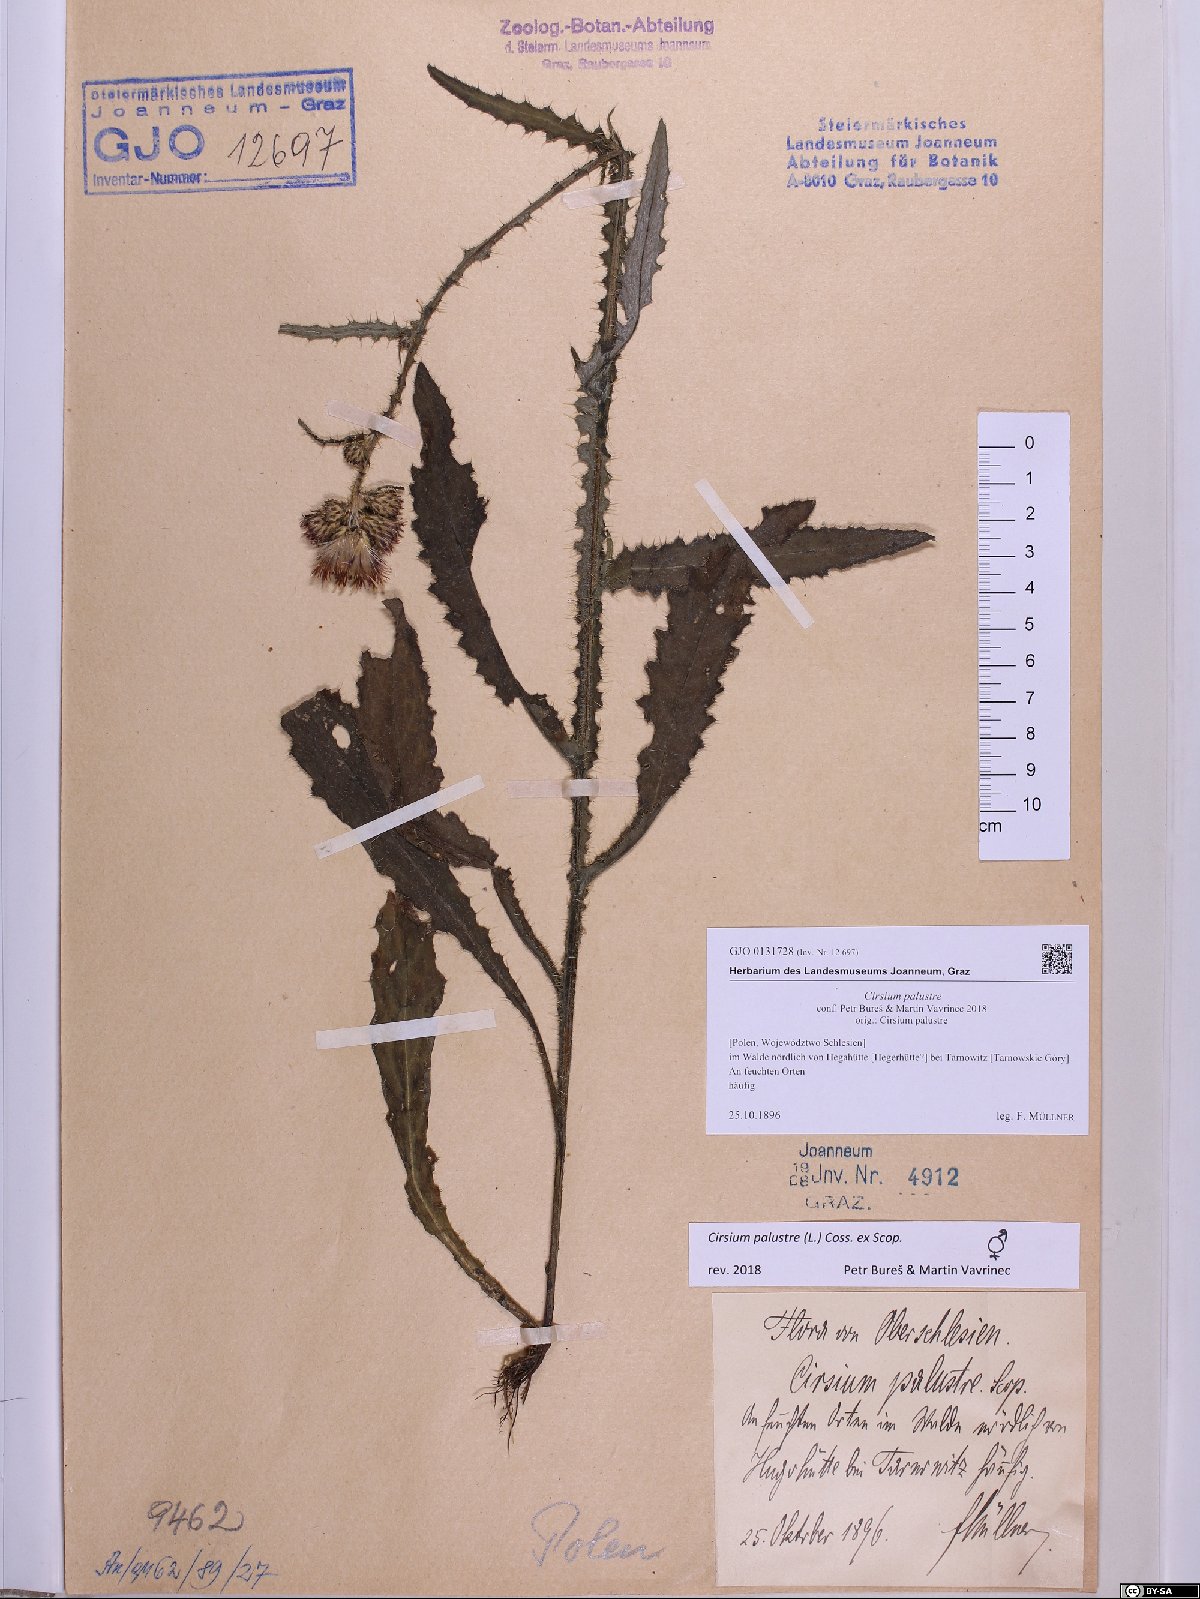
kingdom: Plantae
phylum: Tracheophyta
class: Magnoliopsida
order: Asterales
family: Asteraceae
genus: Cirsium
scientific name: Cirsium palustre
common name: Marsh thistle
